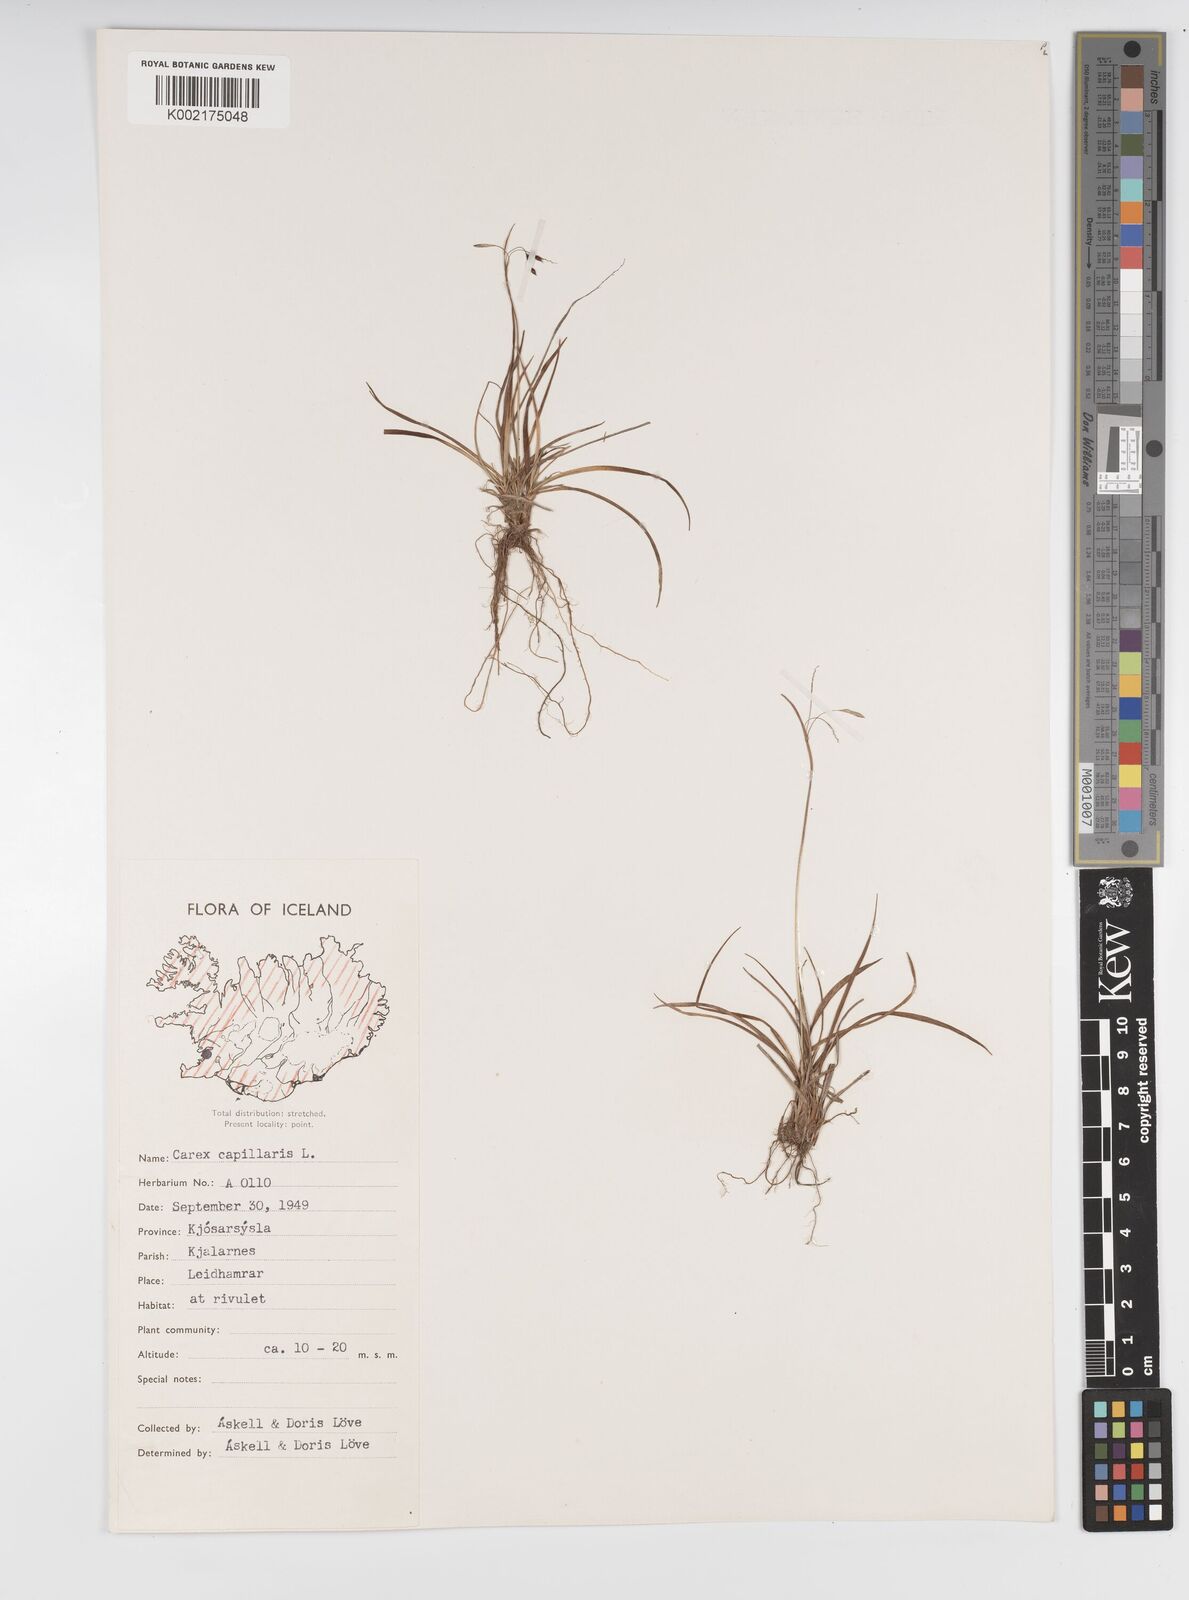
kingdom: Plantae
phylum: Tracheophyta
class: Liliopsida
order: Poales
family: Cyperaceae
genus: Carex
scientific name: Carex capillaris
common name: Hair sedge
